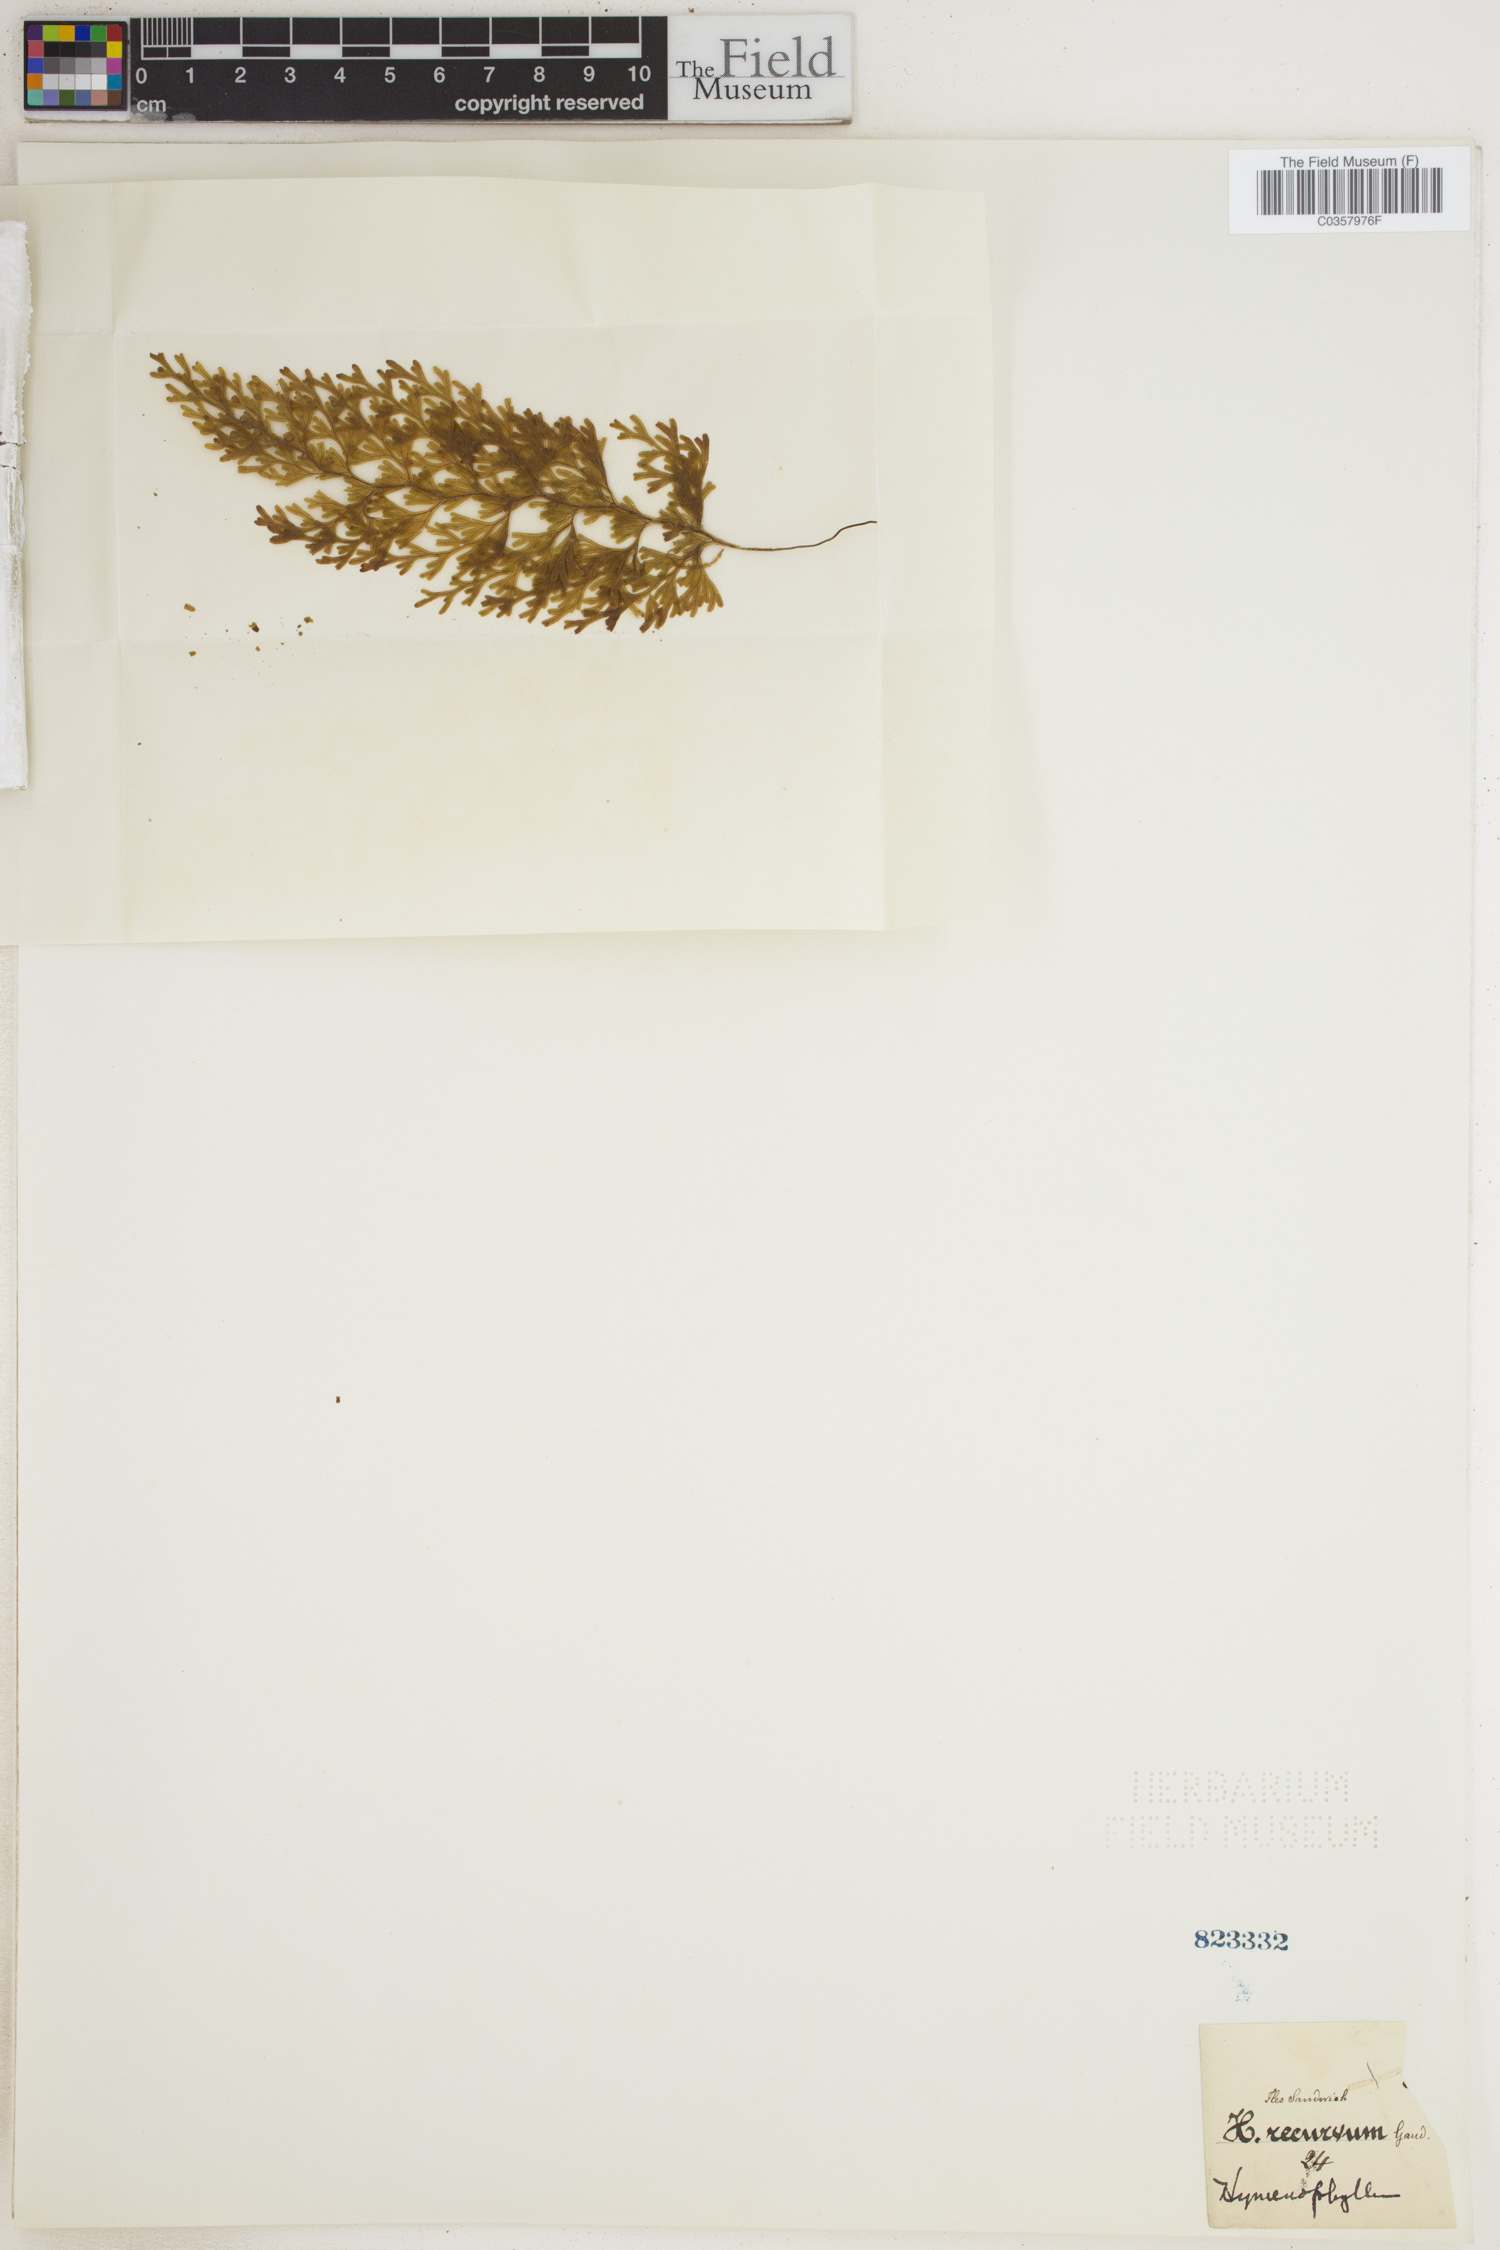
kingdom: Plantae
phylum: Tracheophyta
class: Polypodiopsida
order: Hymenophyllales
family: Hymenophyllaceae
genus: Hymenophyllum
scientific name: Hymenophyllum recurvum
